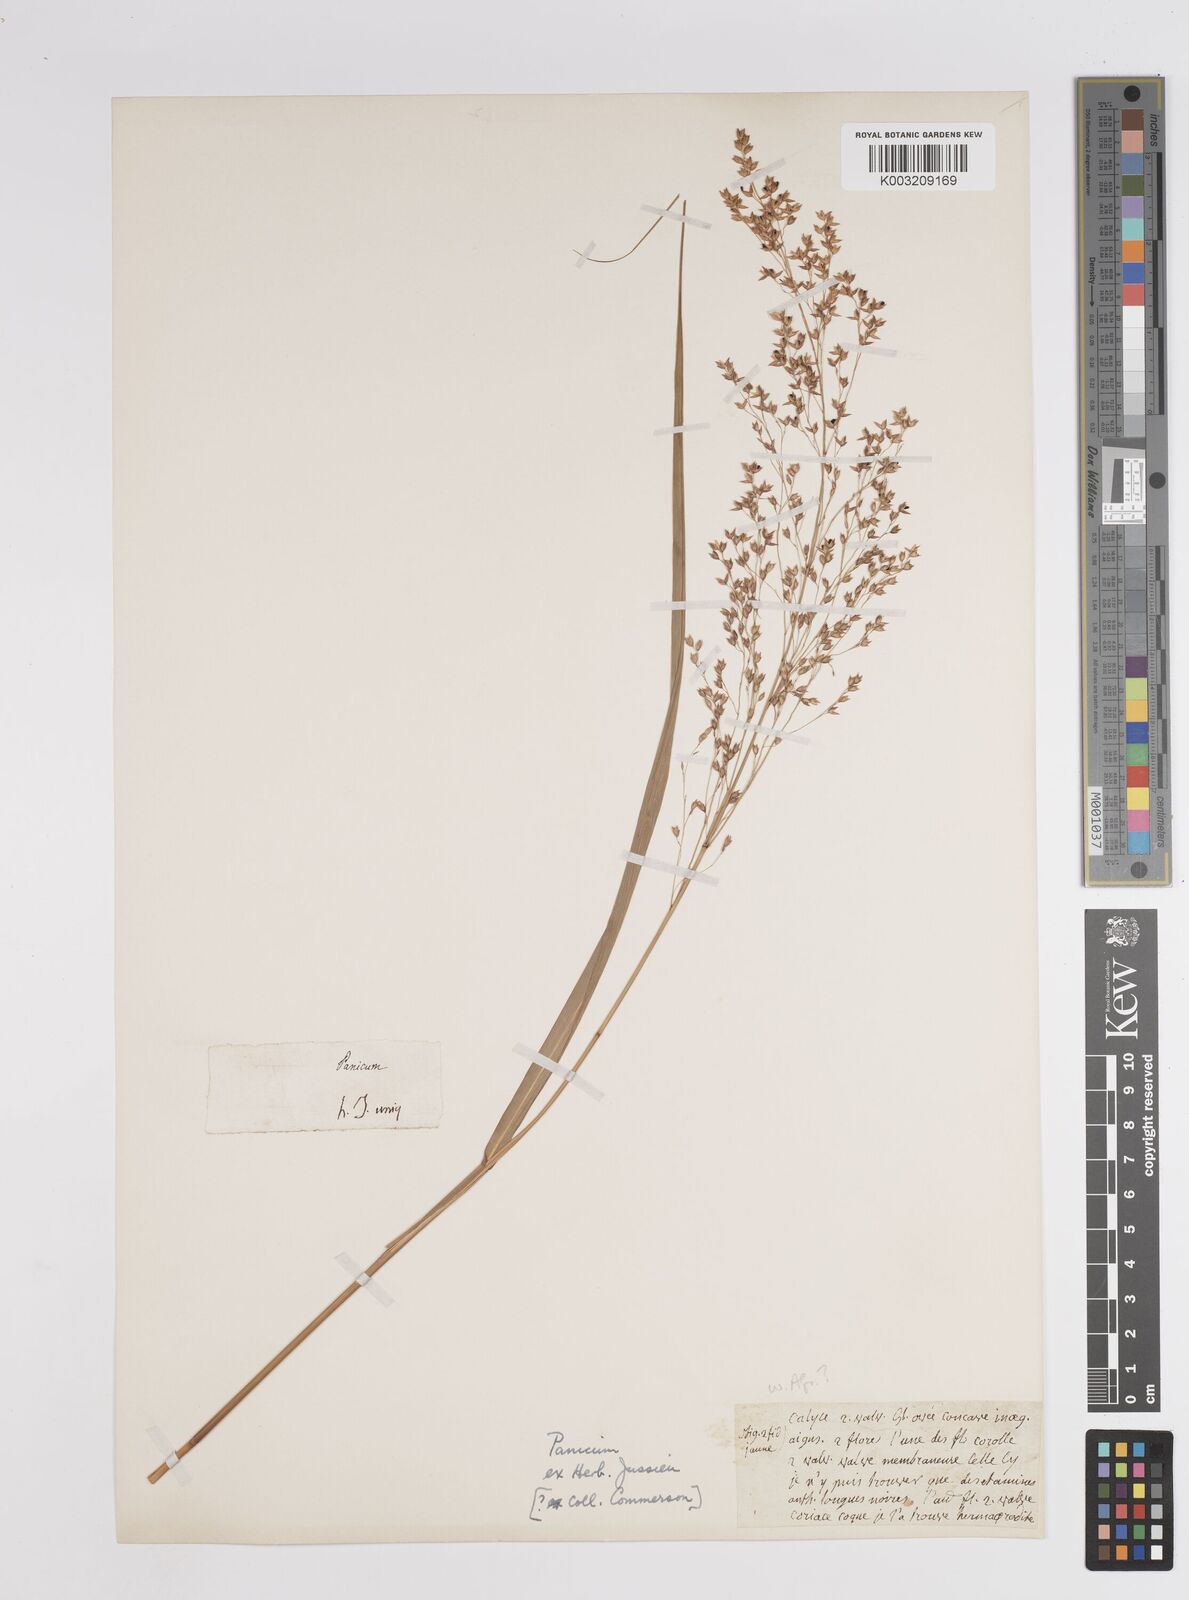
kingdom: Plantae
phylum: Tracheophyta
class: Liliopsida
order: Poales
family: Poaceae
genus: Panicum
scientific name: Panicum
